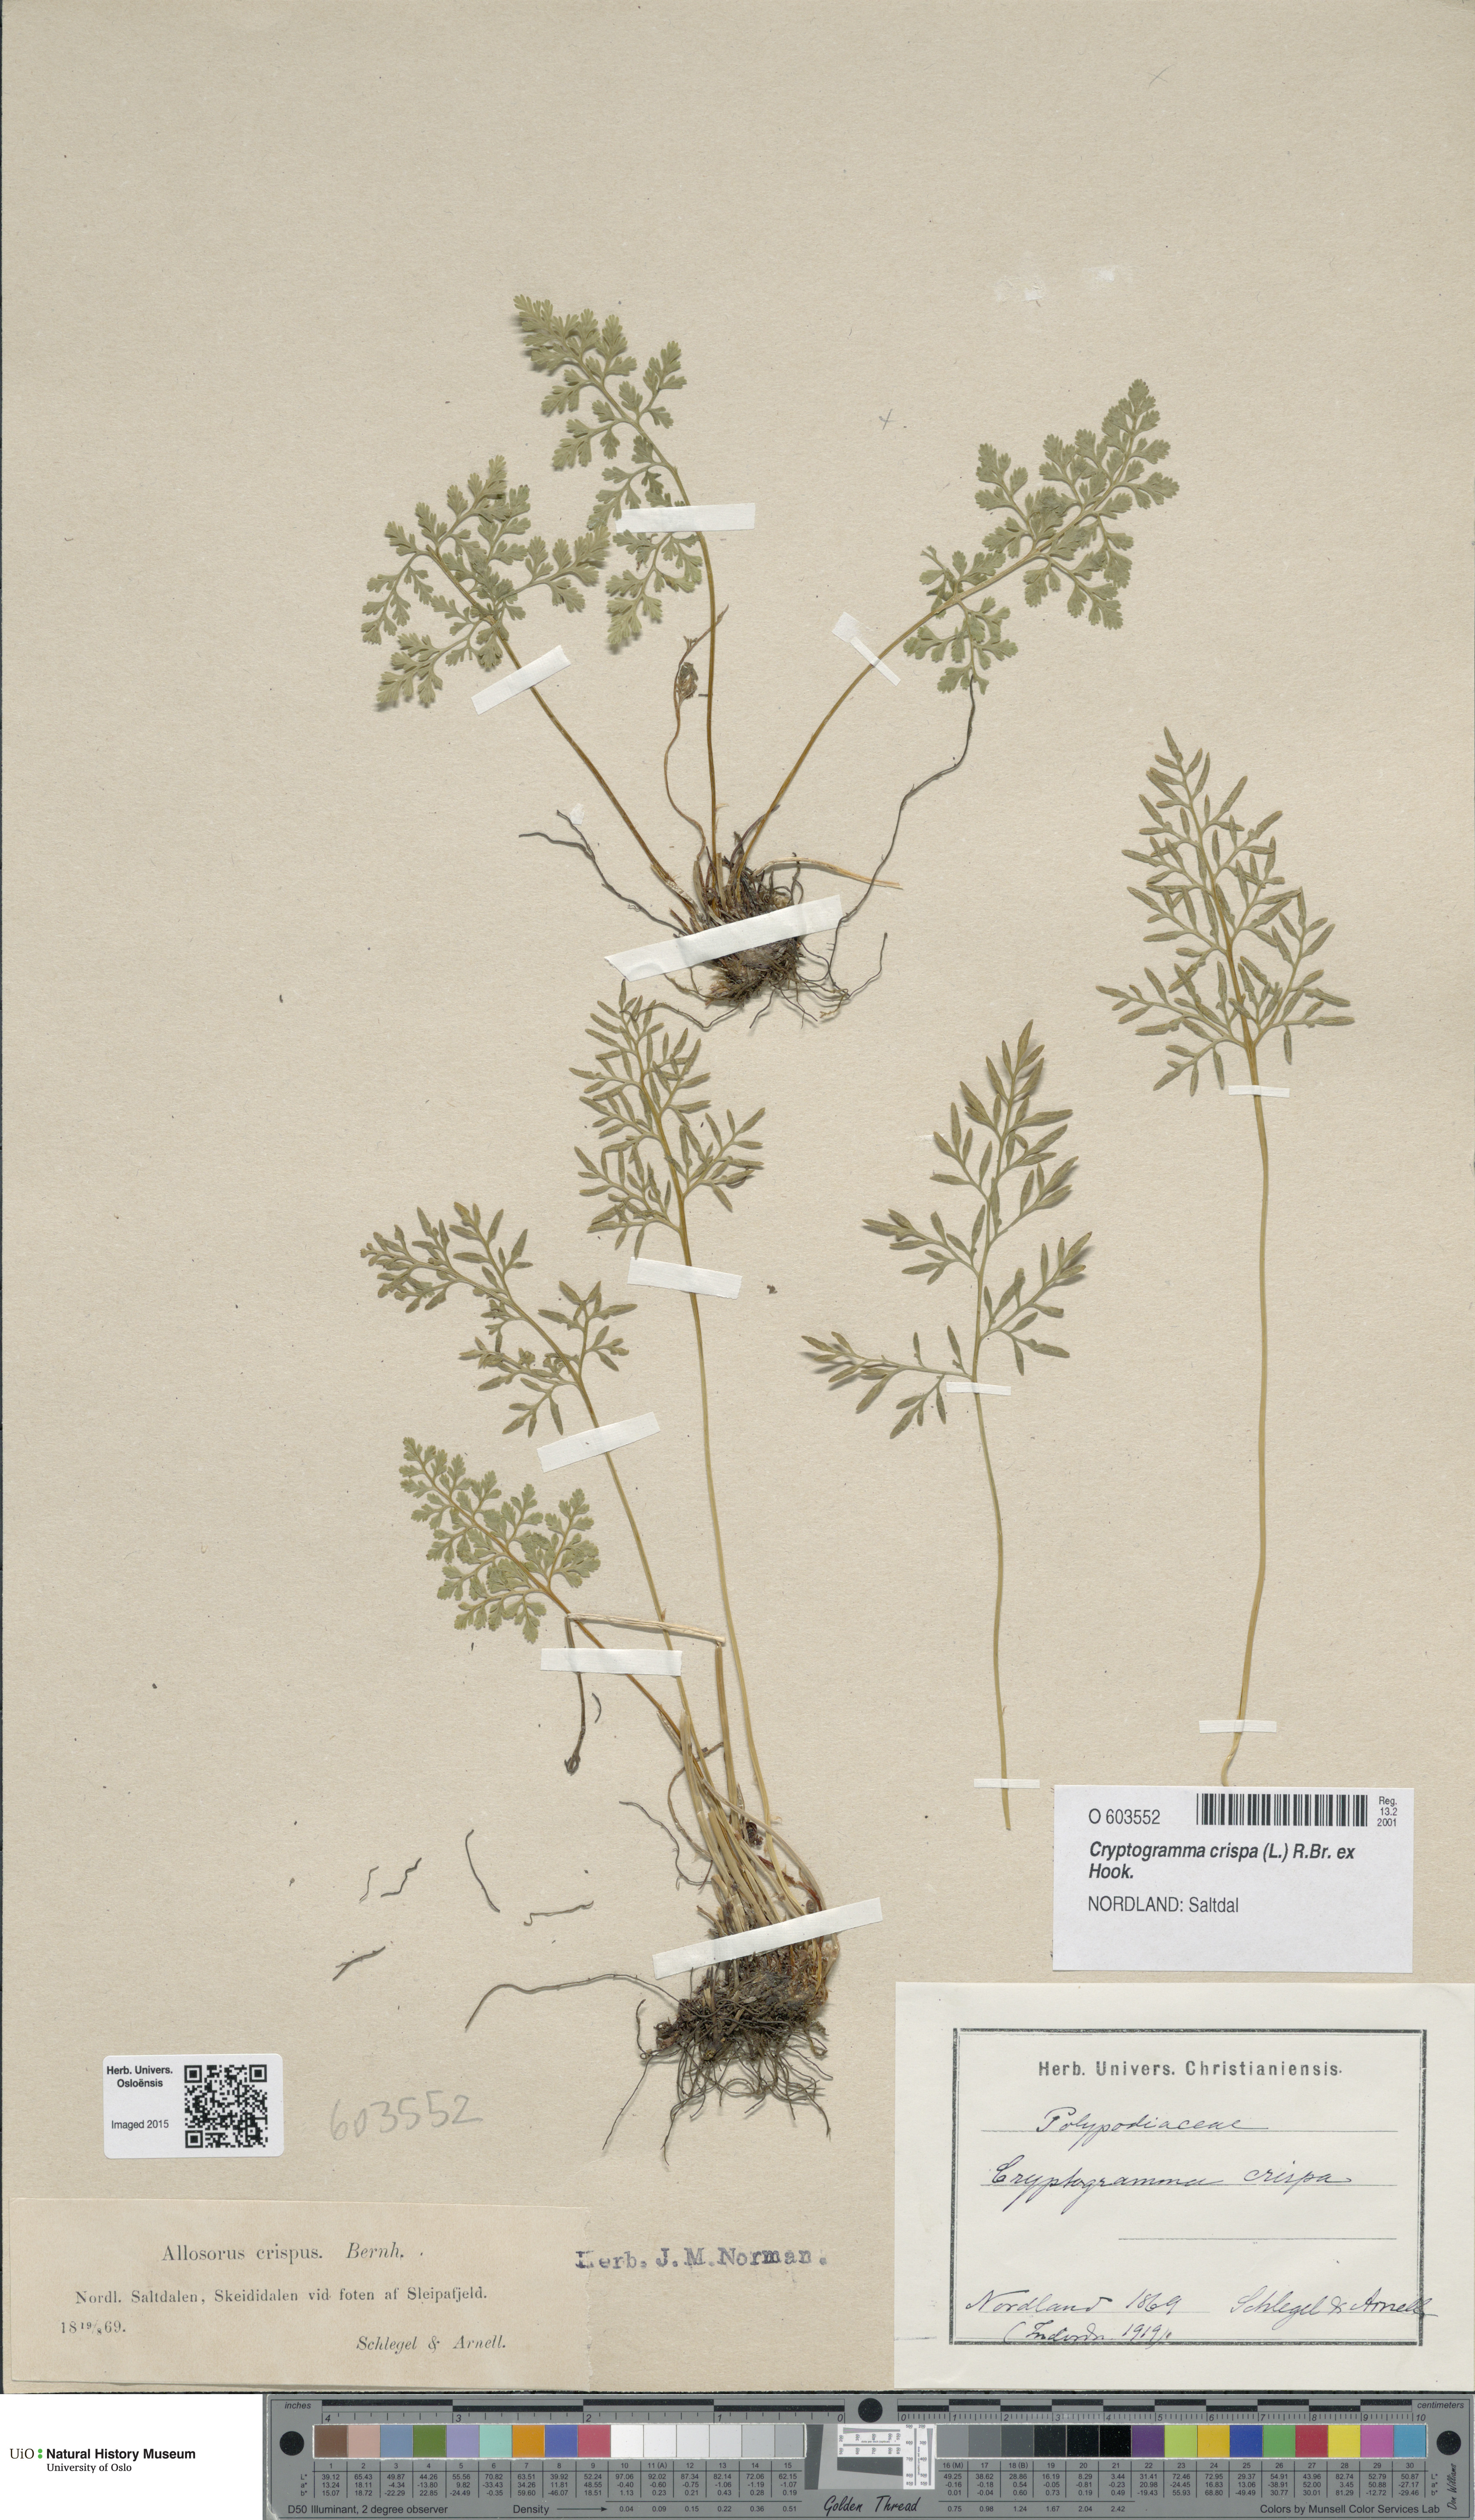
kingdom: Plantae
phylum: Tracheophyta
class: Polypodiopsida
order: Polypodiales
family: Pteridaceae
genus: Cryptogramma
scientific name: Cryptogramma crispa
